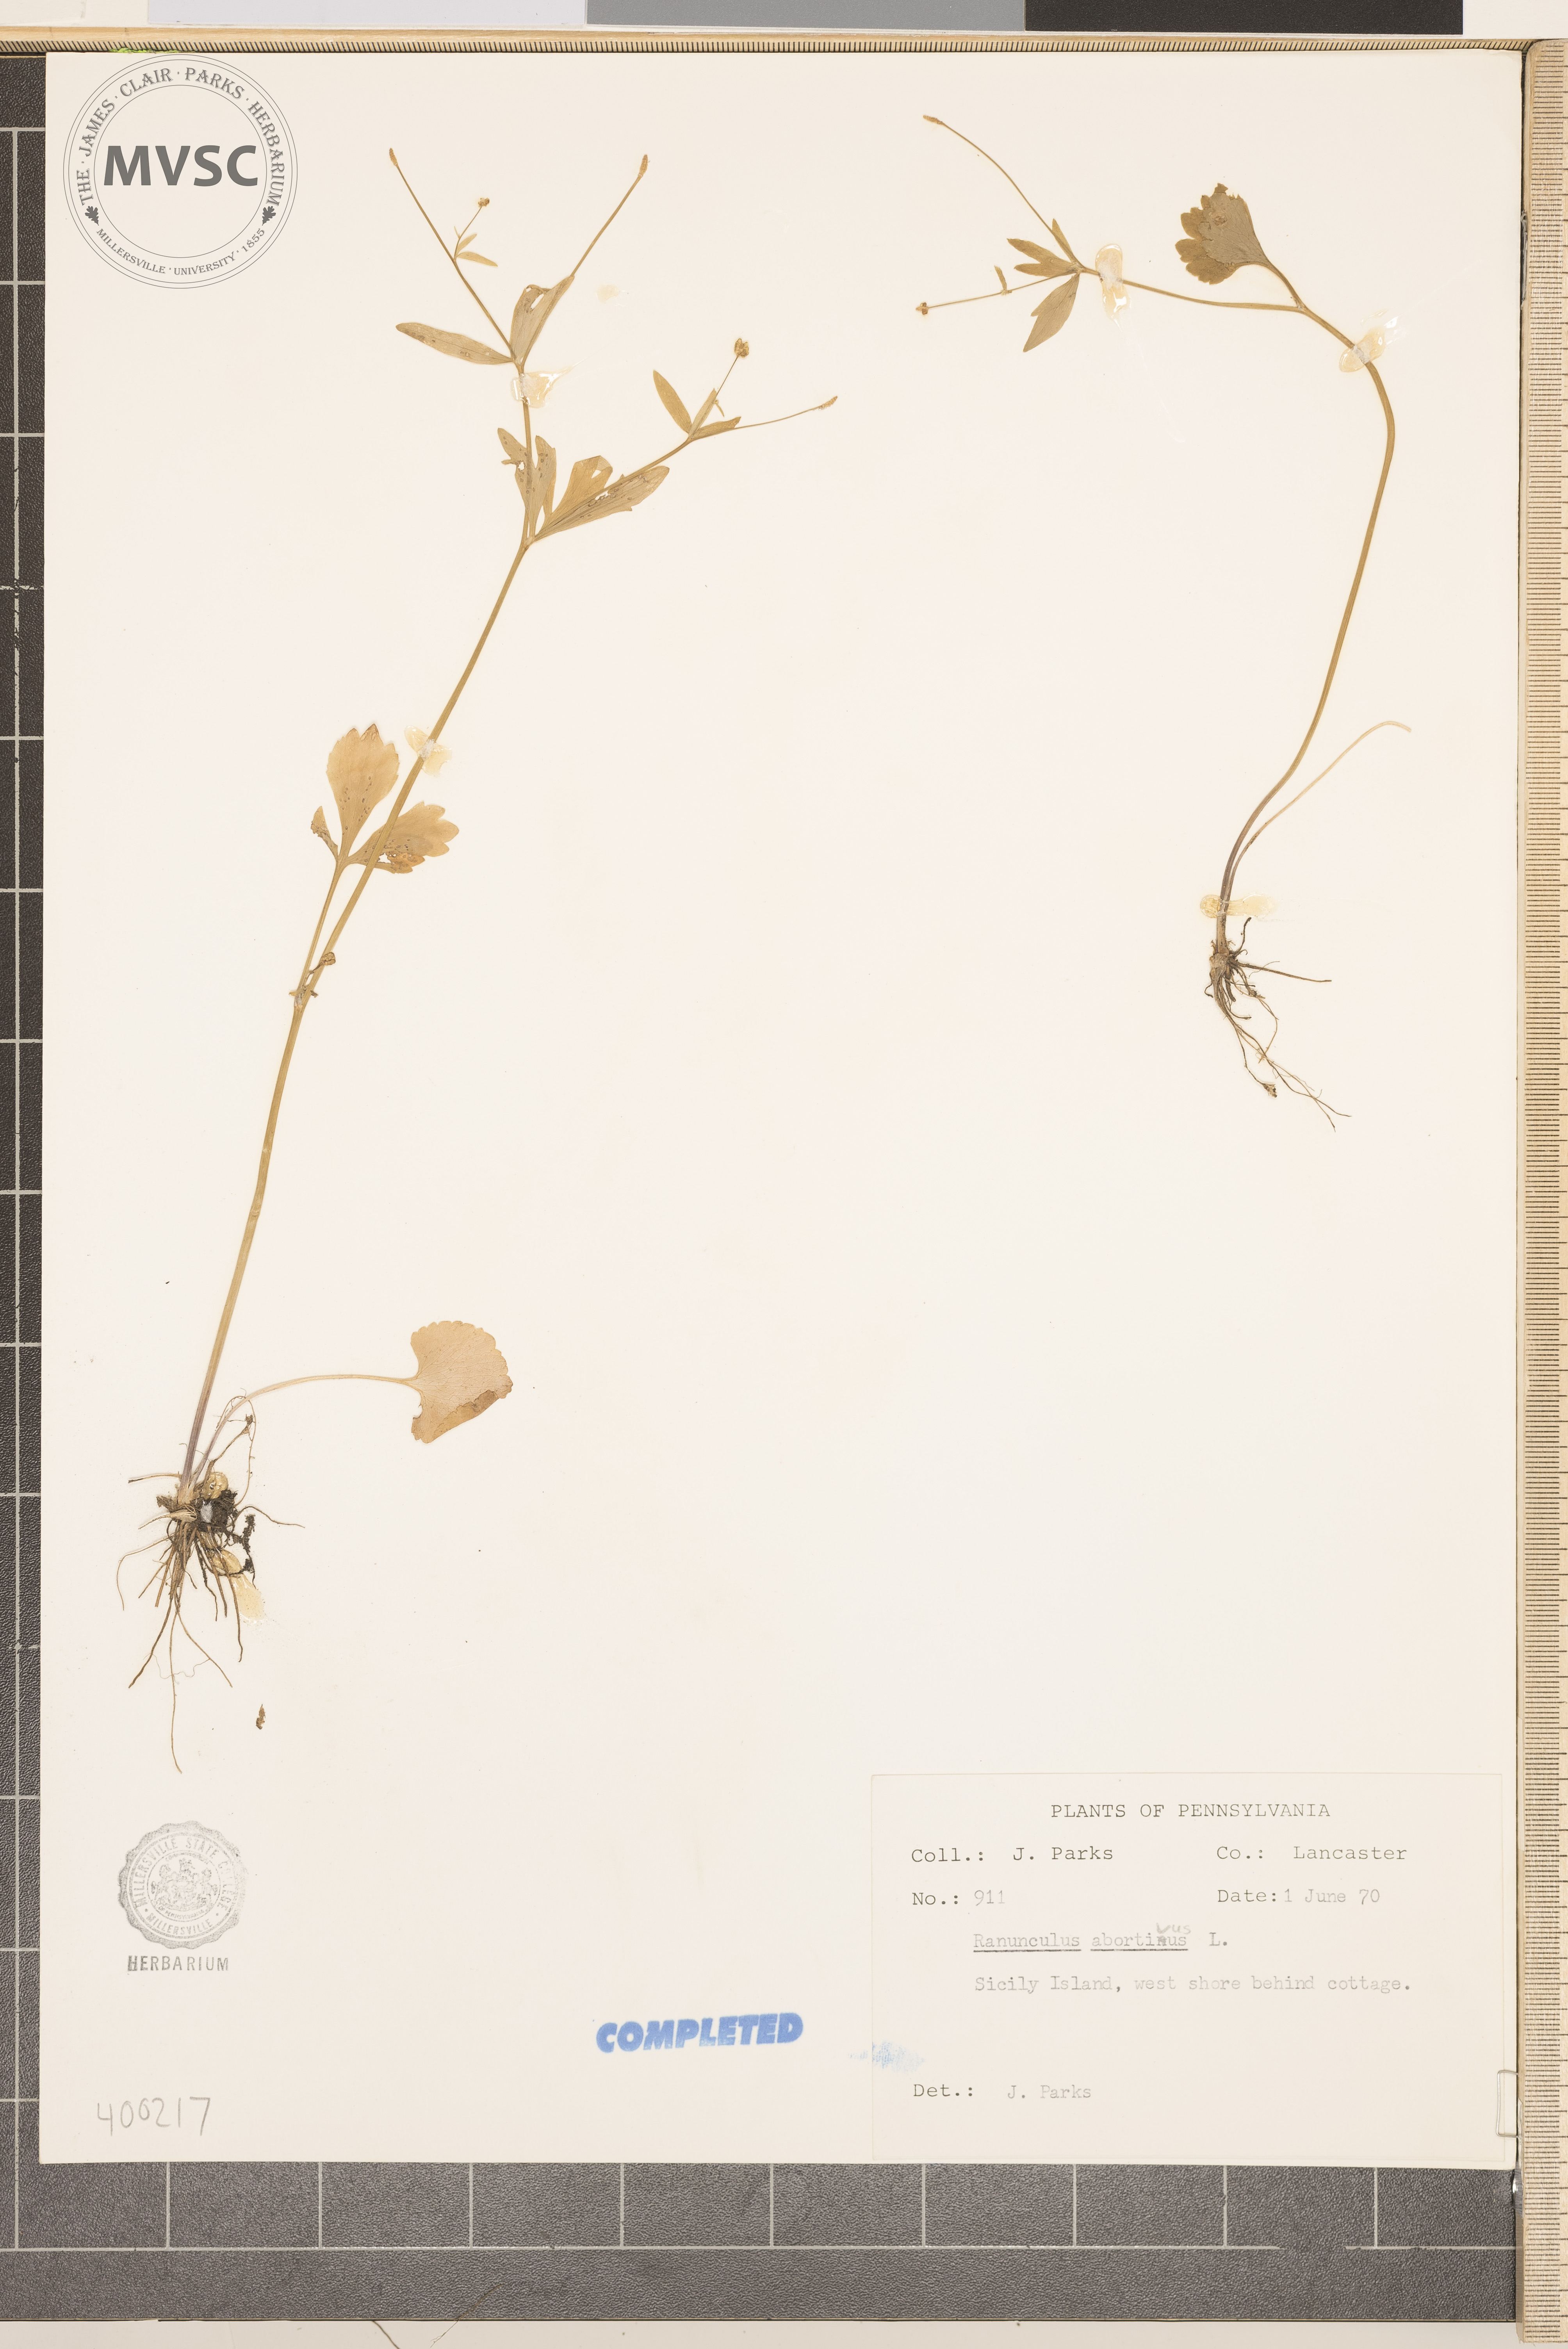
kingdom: Plantae
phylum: Tracheophyta
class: Magnoliopsida
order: Ranunculales
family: Ranunculaceae
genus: Ranunculus
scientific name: Ranunculus abortivus
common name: buttercup
